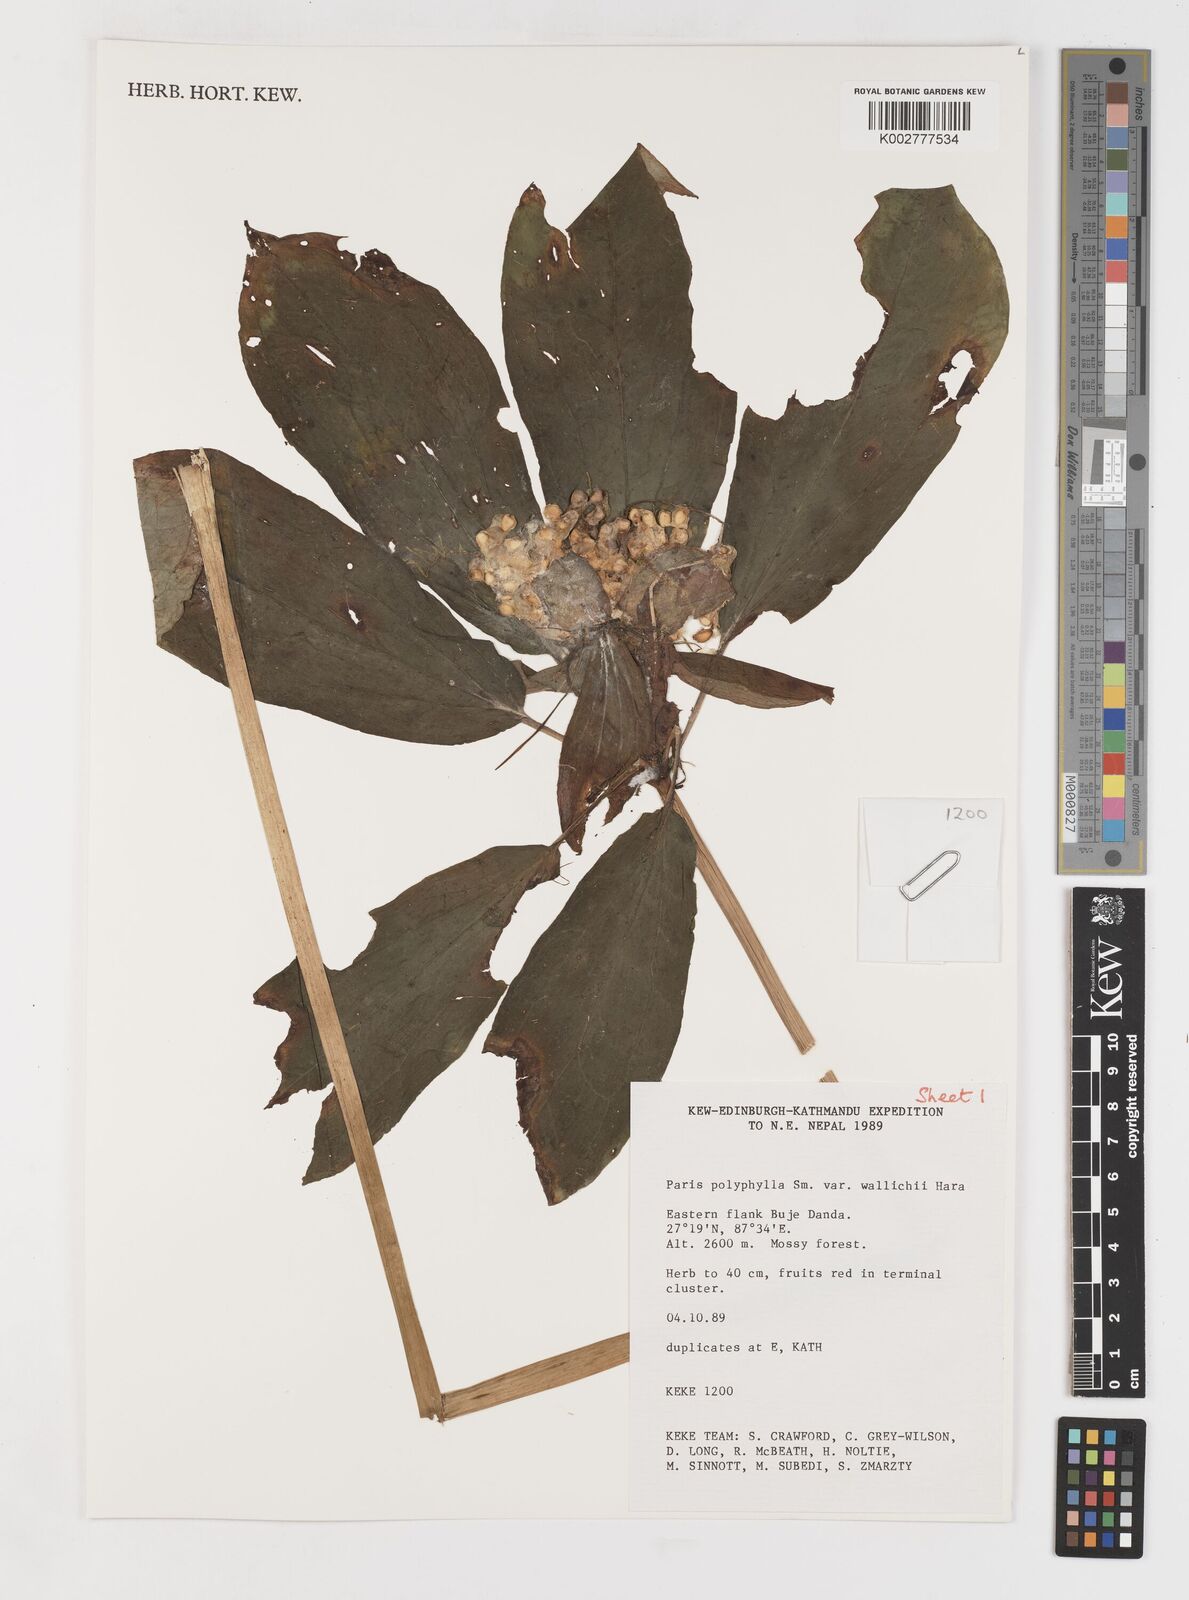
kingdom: Plantae
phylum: Tracheophyta
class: Liliopsida
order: Liliales
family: Melanthiaceae
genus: Paris
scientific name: Paris polyphylla
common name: Love apple
